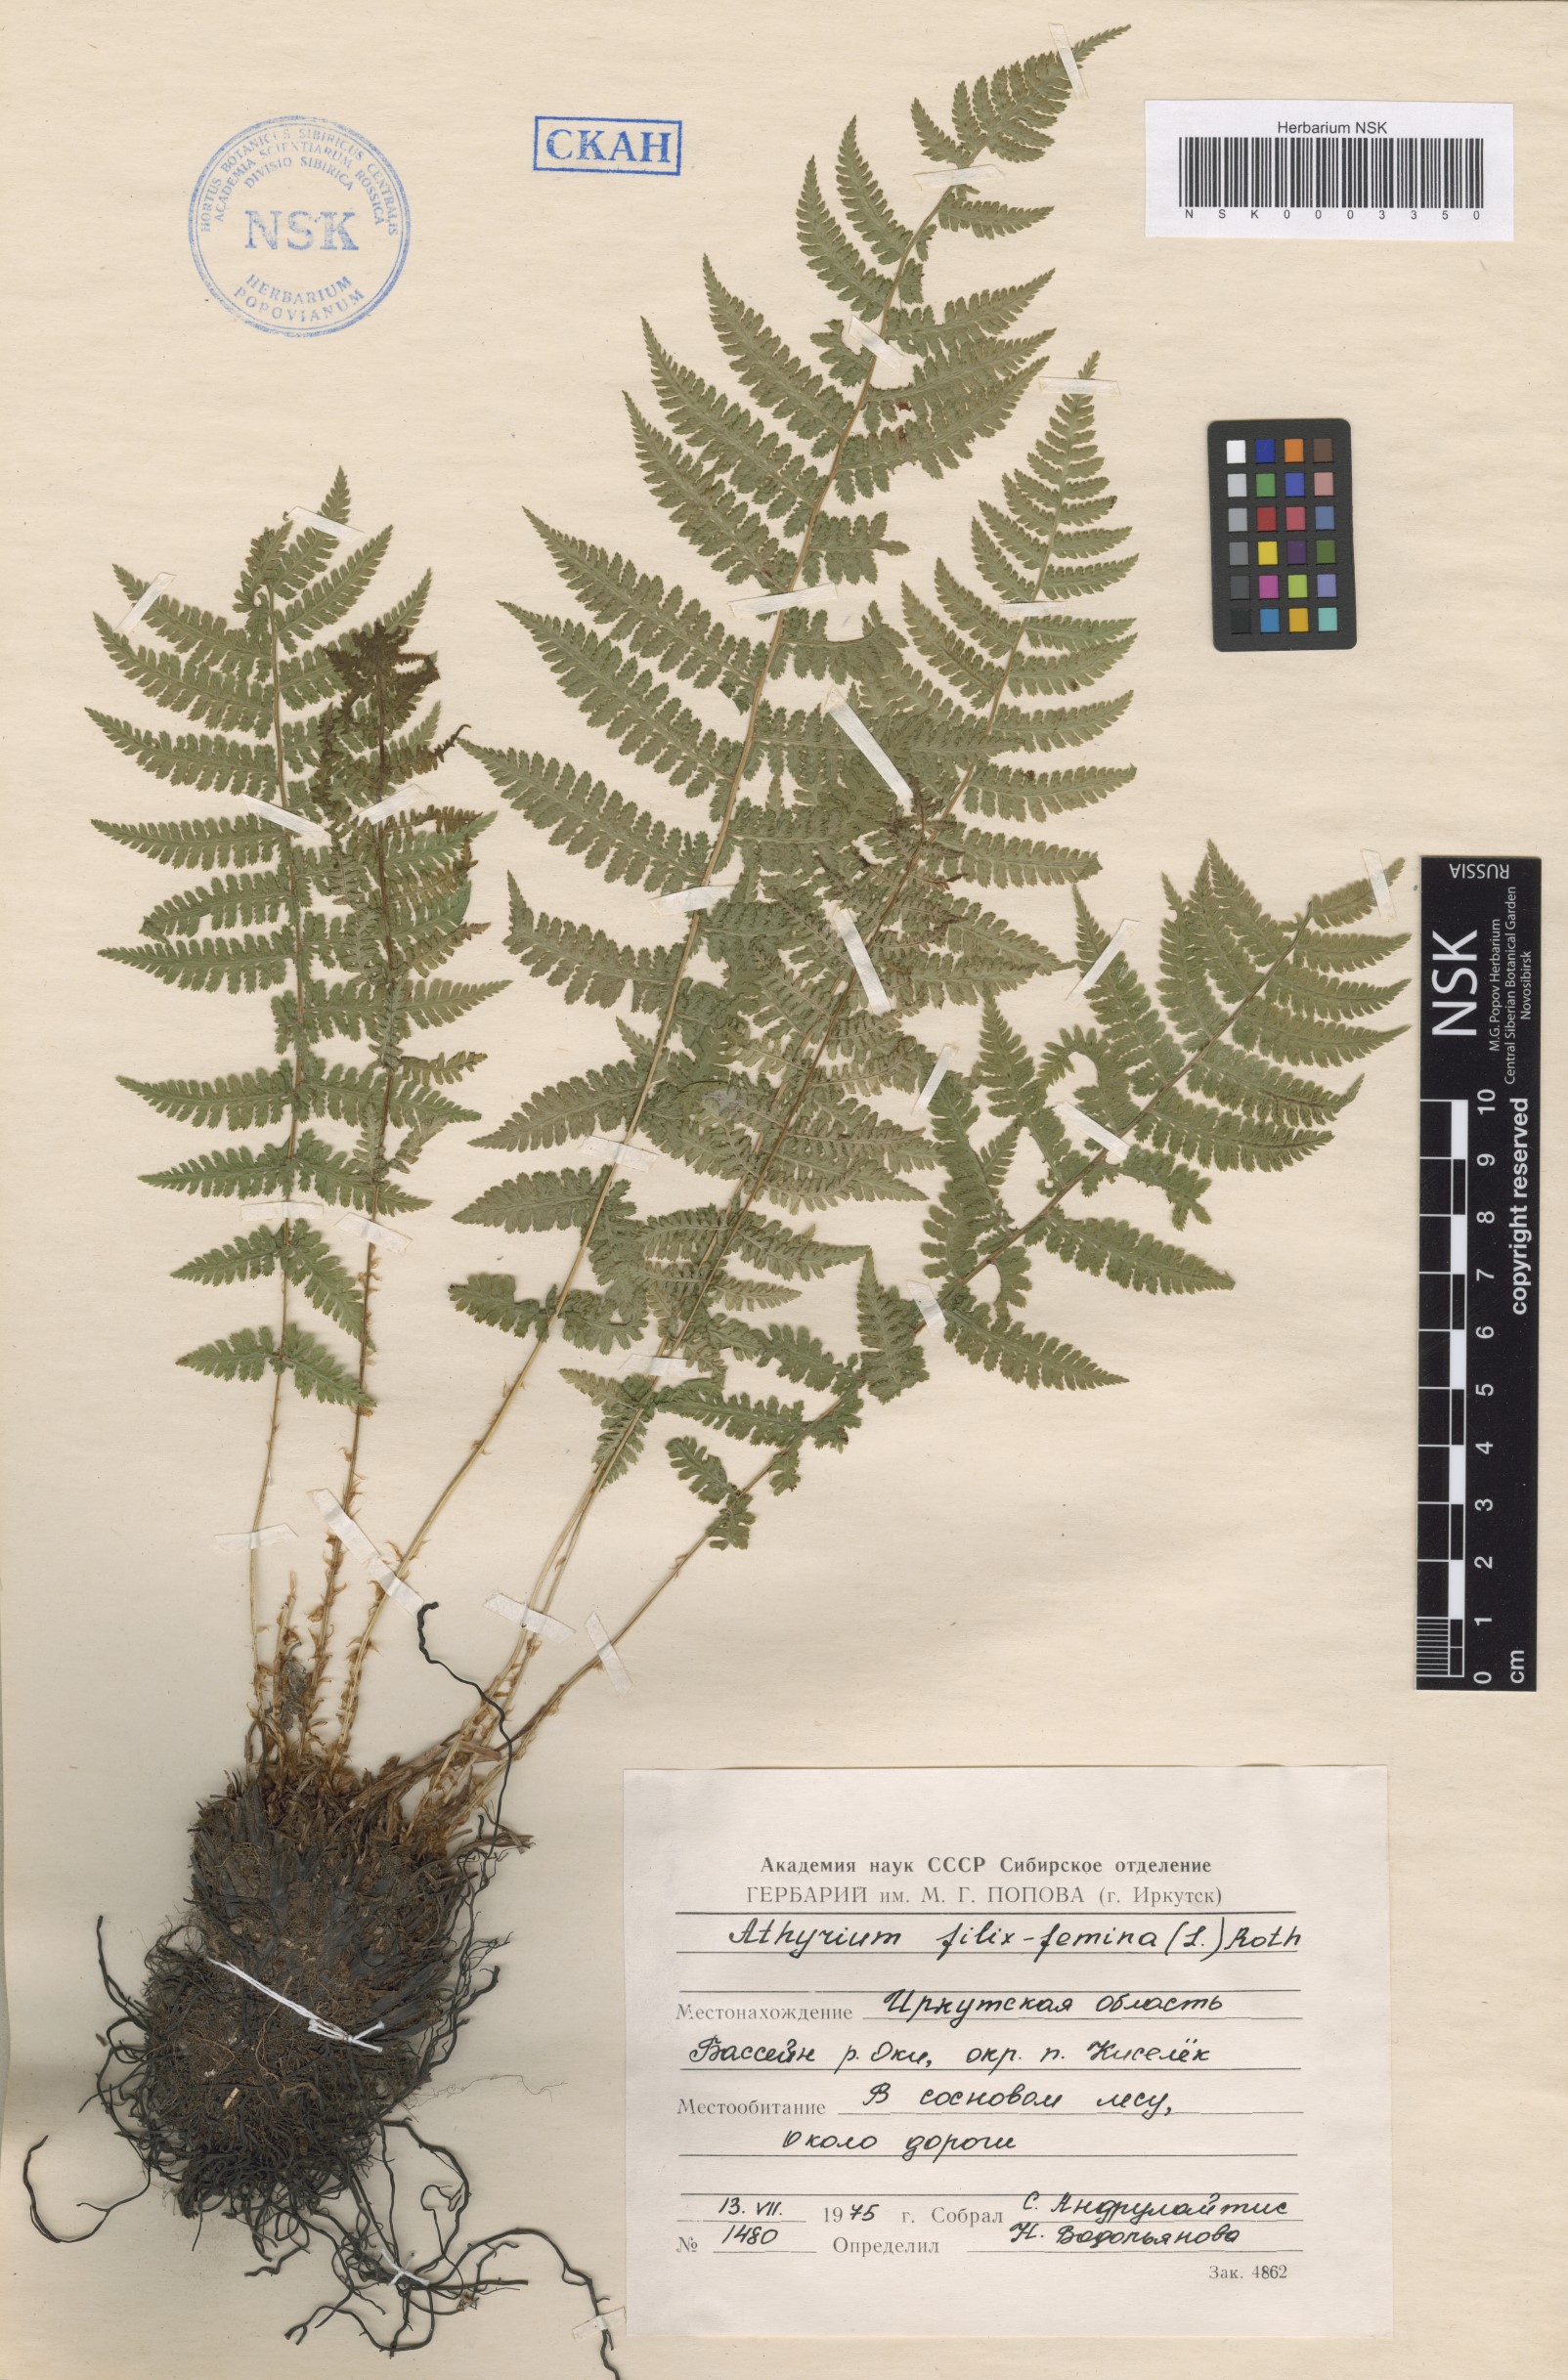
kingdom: Plantae
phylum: Tracheophyta
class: Polypodiopsida
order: Polypodiales
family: Athyriaceae
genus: Athyrium
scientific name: Athyrium filix-femina
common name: Lady fern
